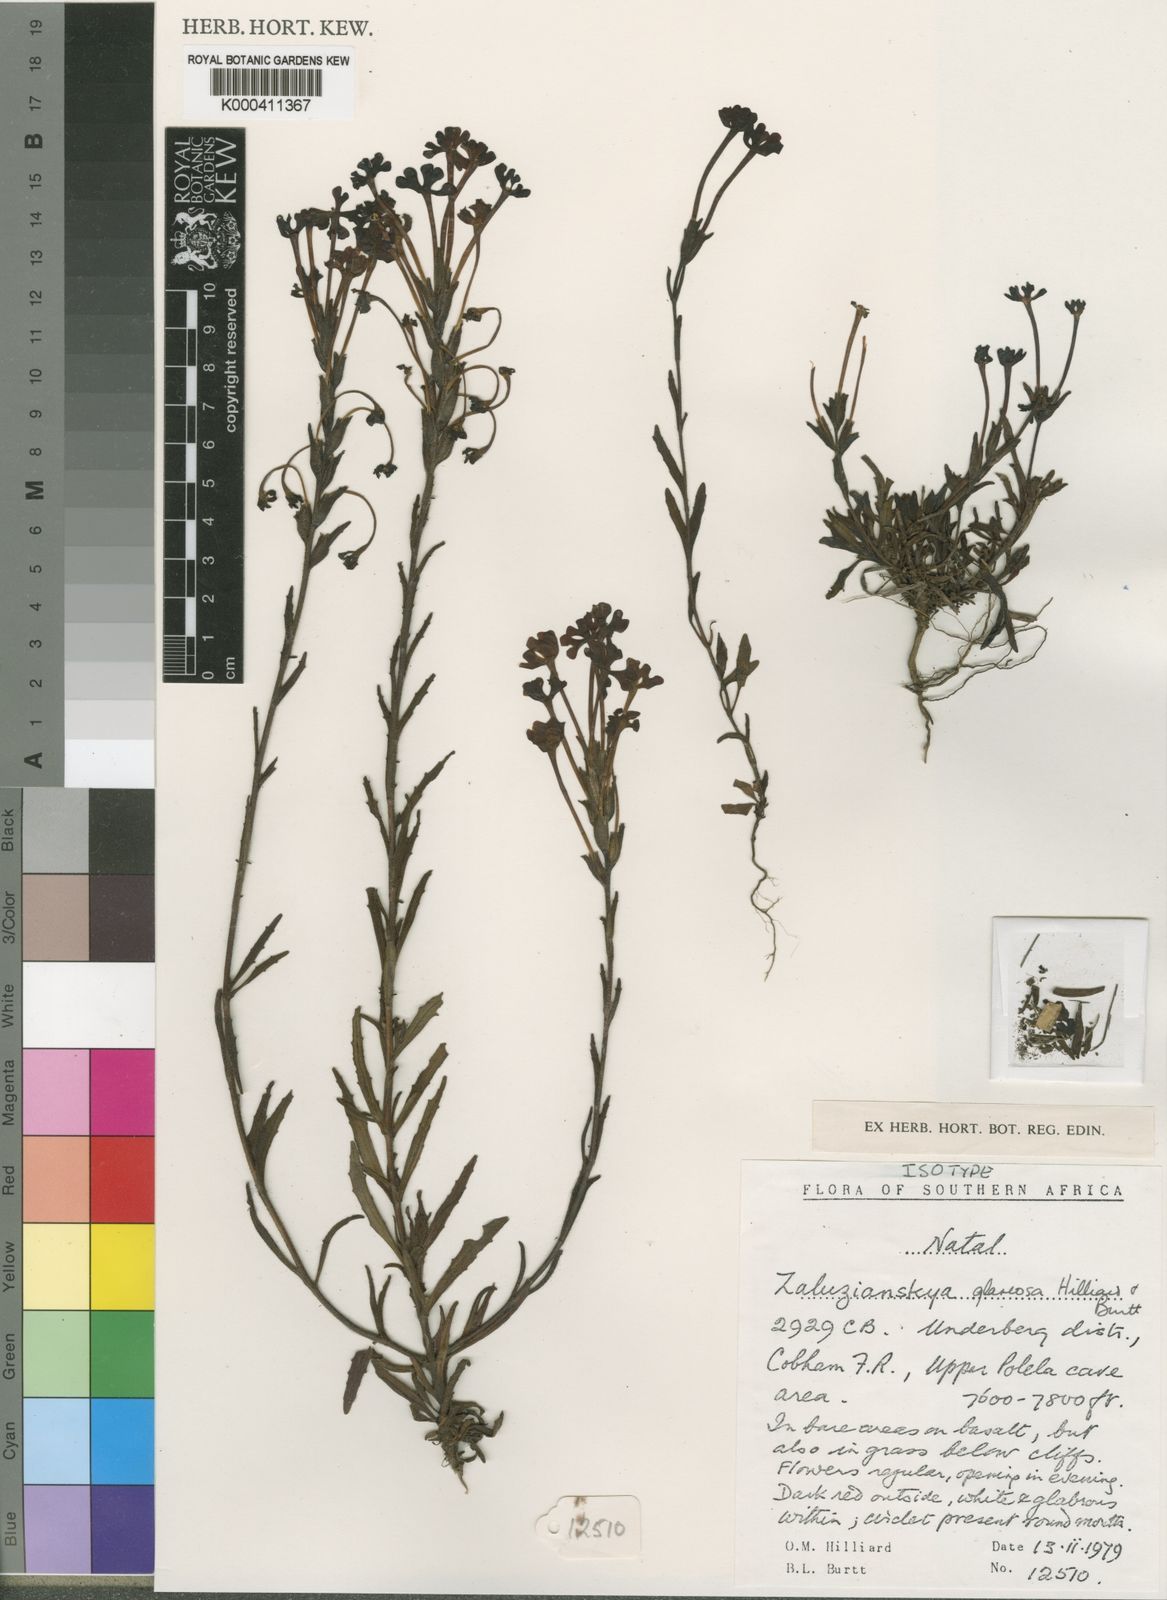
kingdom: Plantae
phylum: Tracheophyta
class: Magnoliopsida
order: Lamiales
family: Scrophulariaceae
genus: Zaluzianskya
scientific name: Zaluzianskya glareosa
